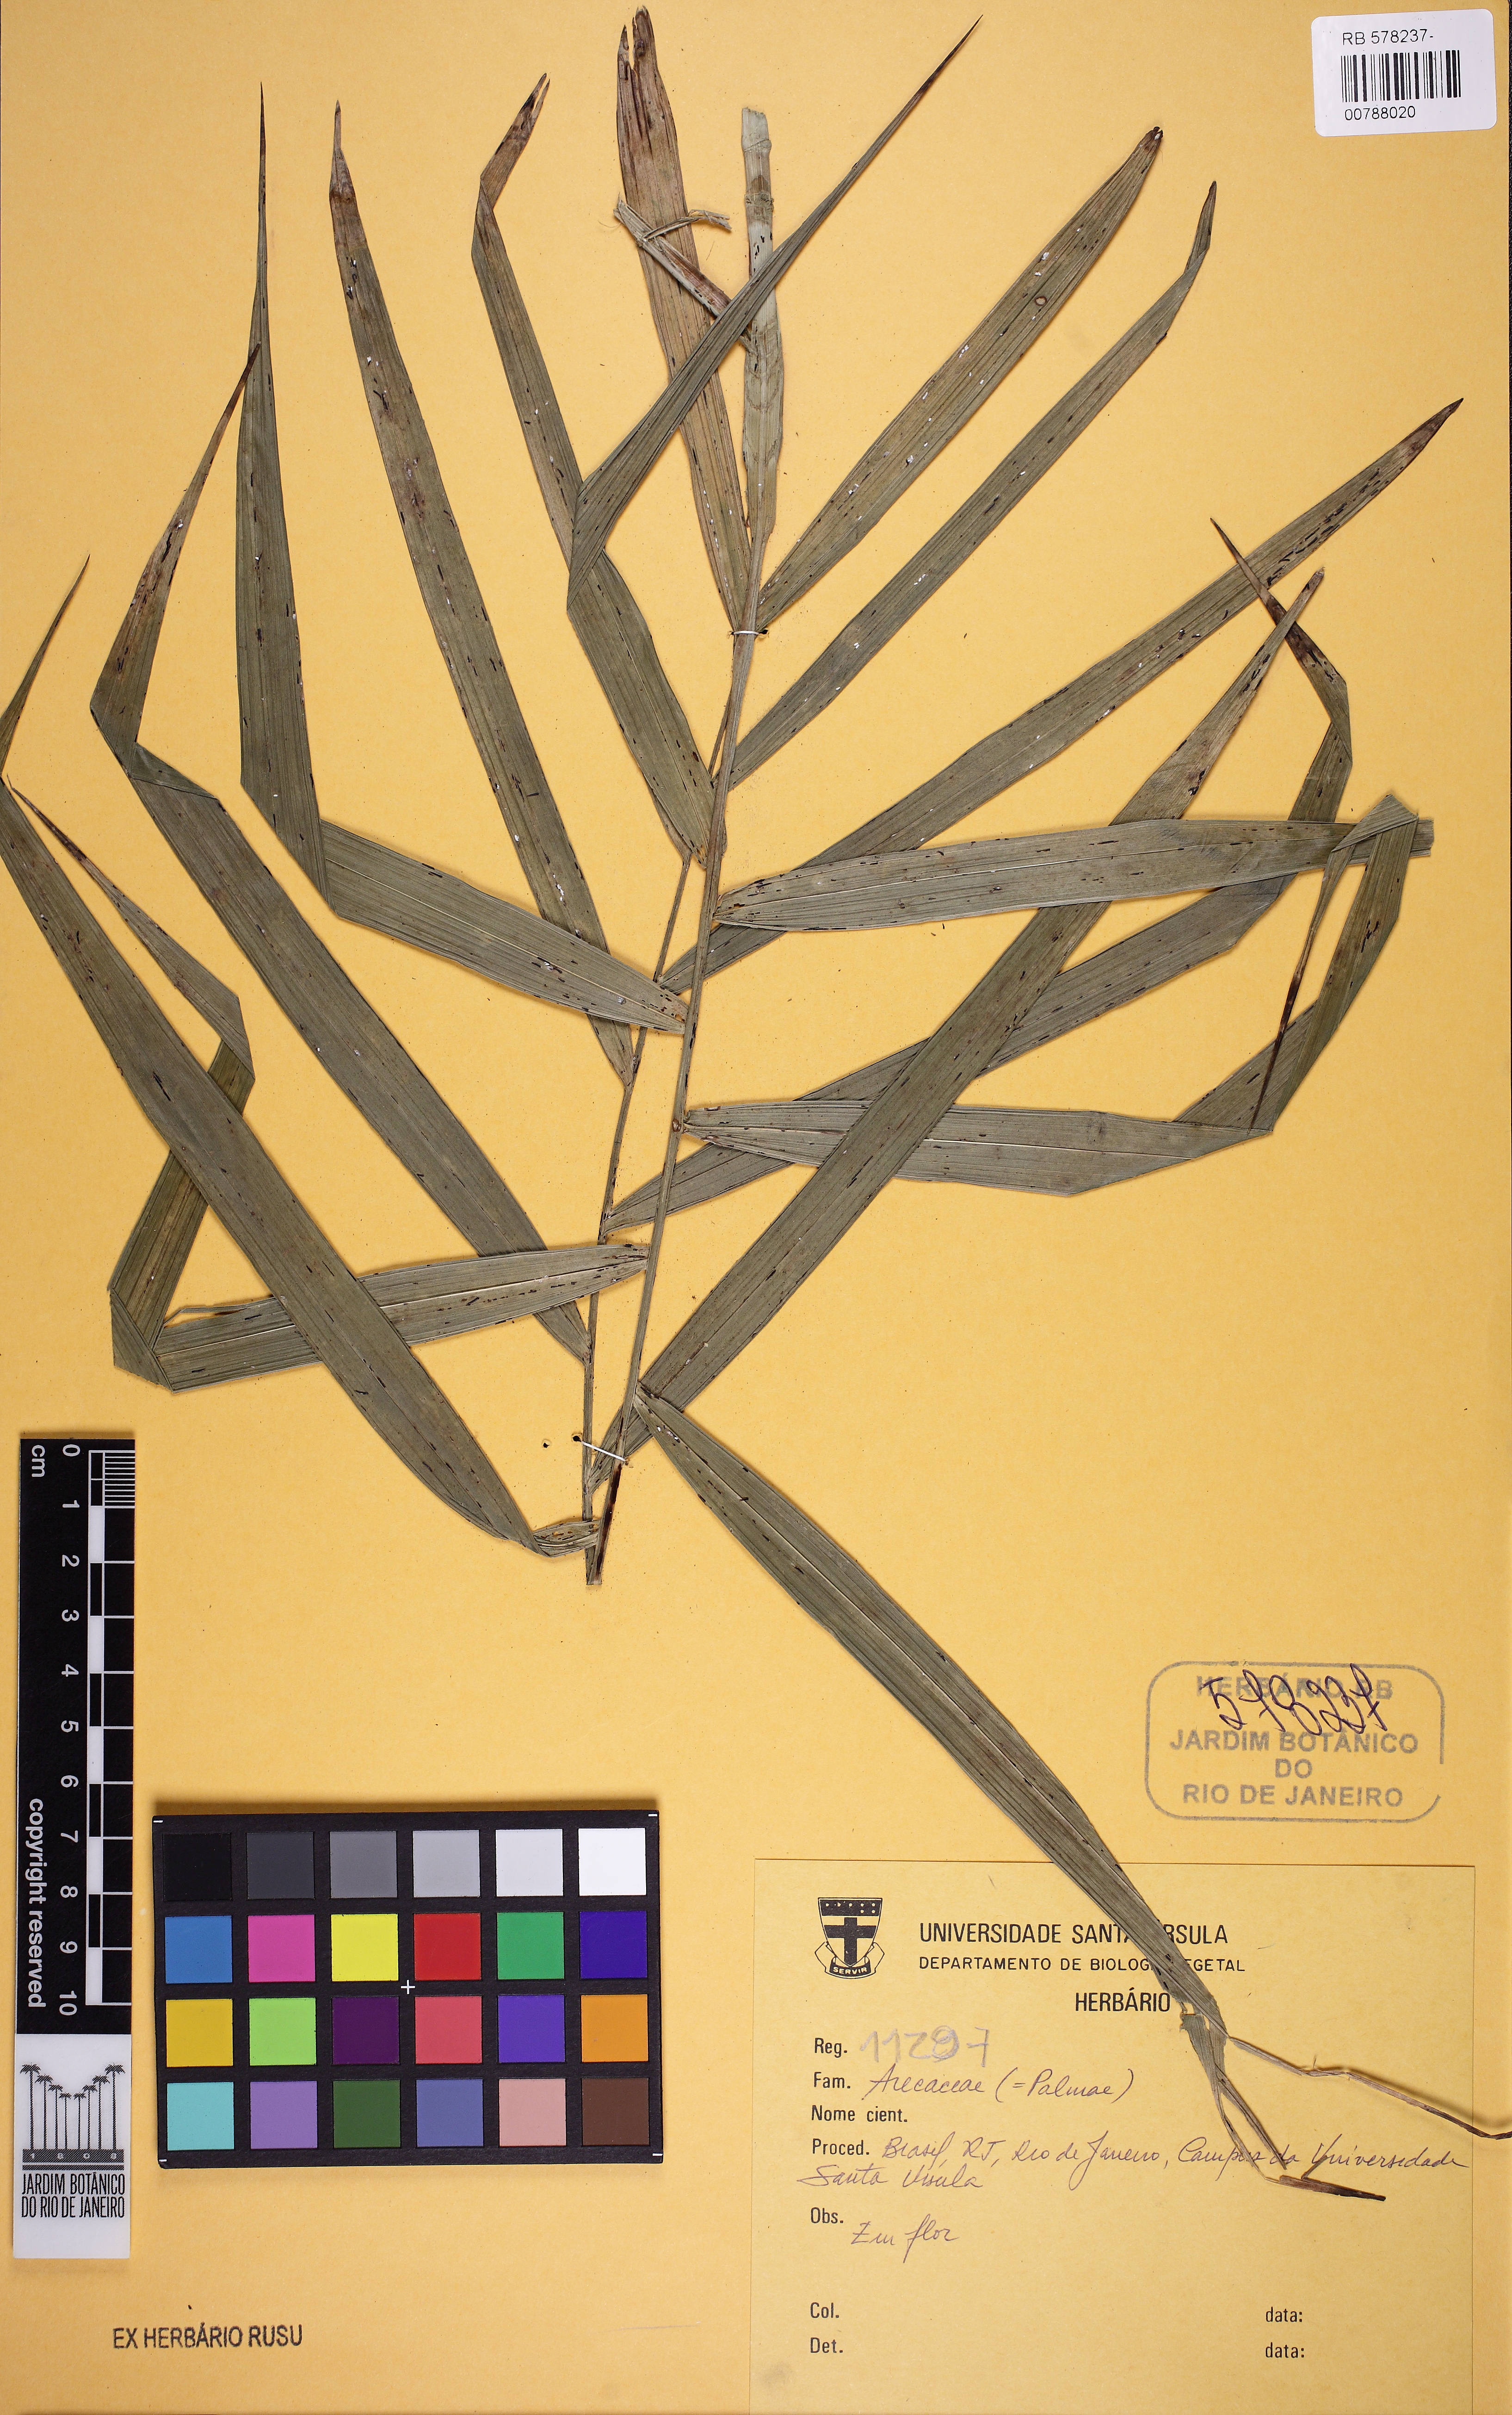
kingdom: Plantae
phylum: Tracheophyta
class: Liliopsida
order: Arecales
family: Arecaceae
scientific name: Arecaceae
